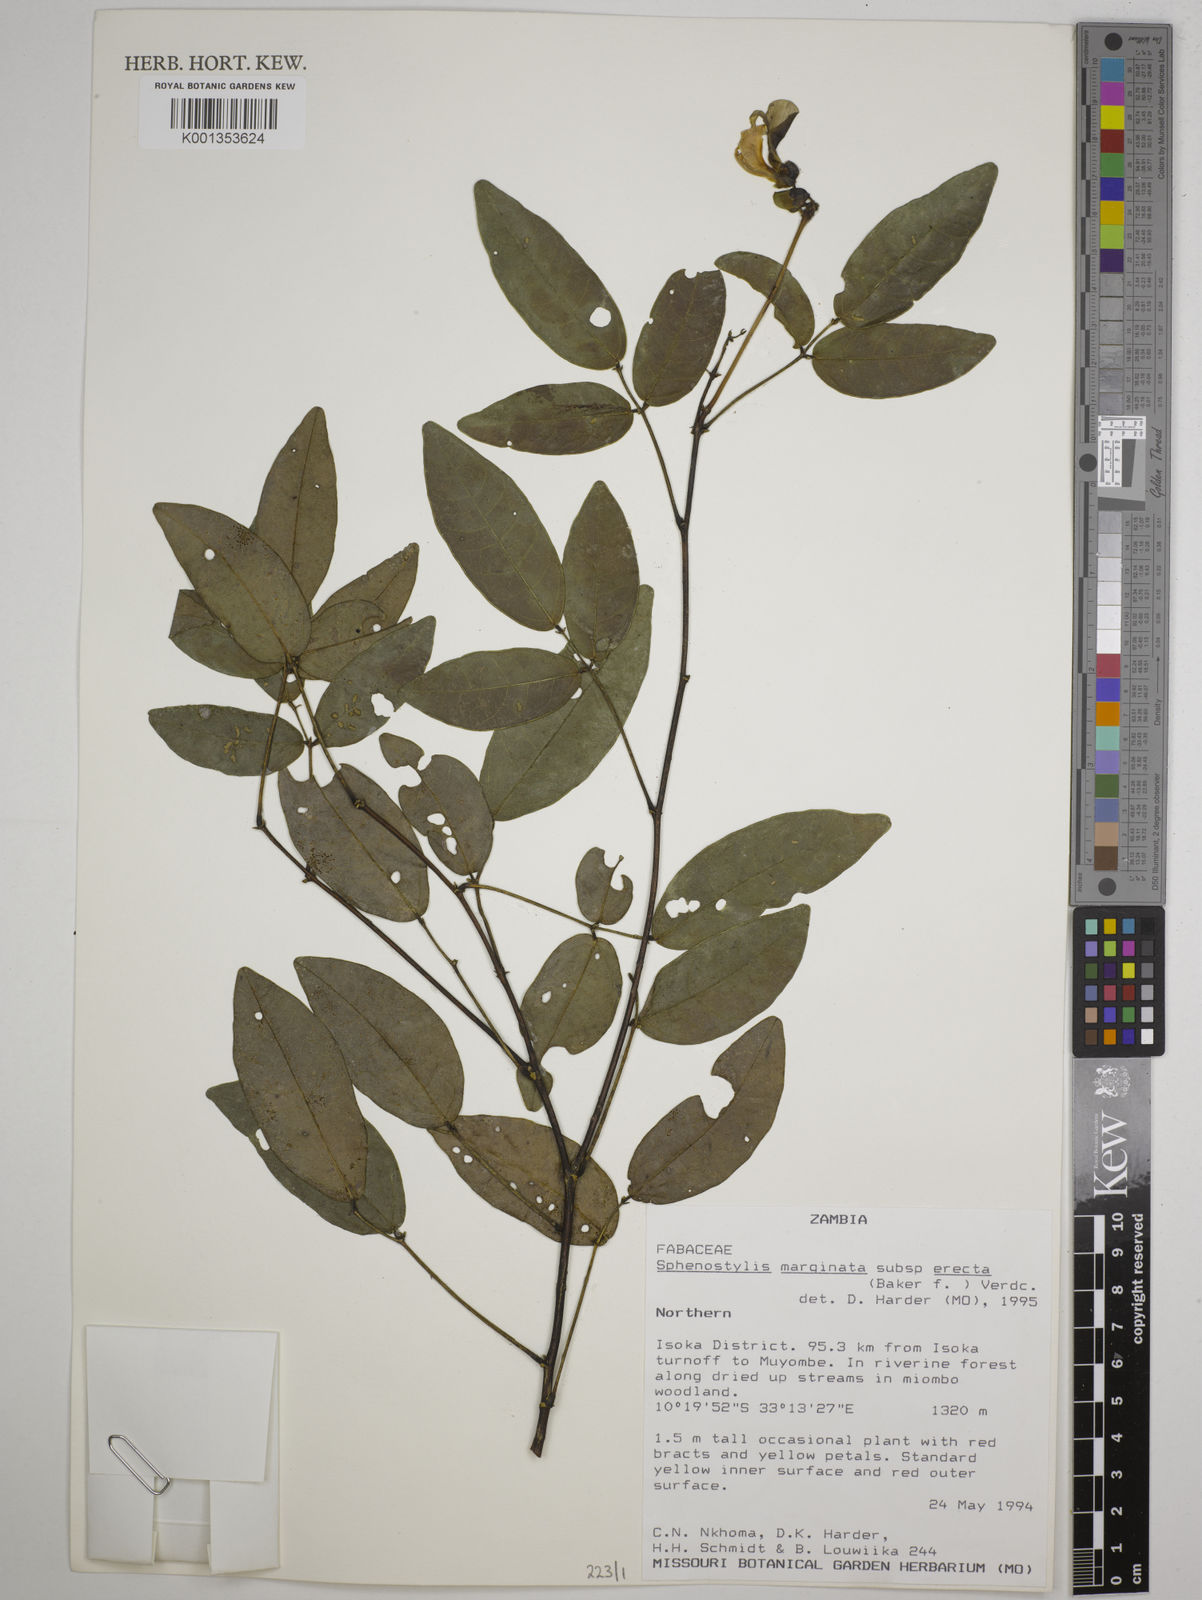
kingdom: Plantae
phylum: Tracheophyta
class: Magnoliopsida
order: Fabales
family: Fabaceae
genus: Sphenostylis
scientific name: Sphenostylis erecta
